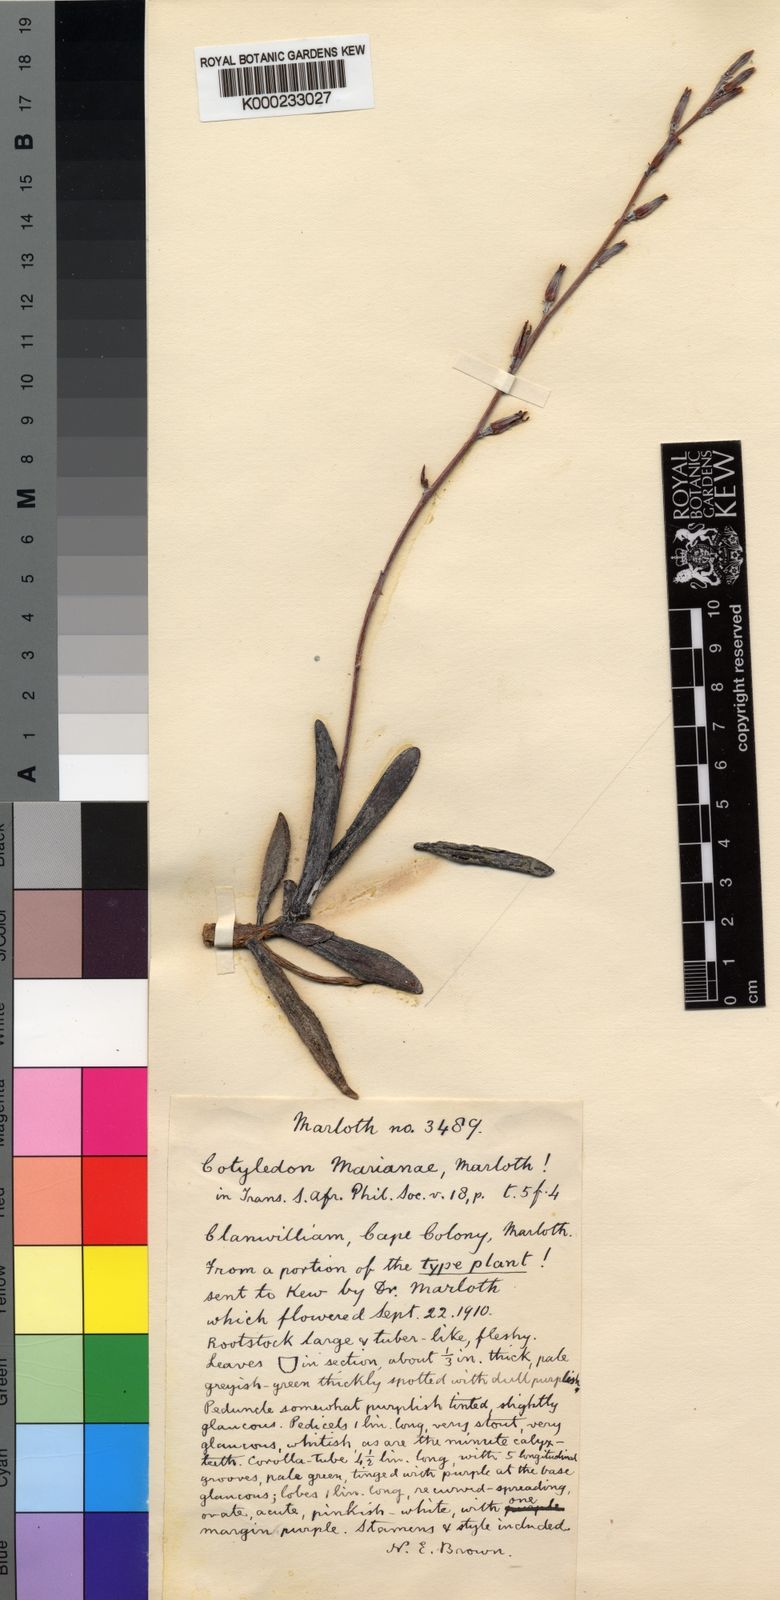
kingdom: Plantae
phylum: Tracheophyta
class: Magnoliopsida
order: Saxifragales
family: Crassulaceae
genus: Adromischus
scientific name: Adromischus marianiae
